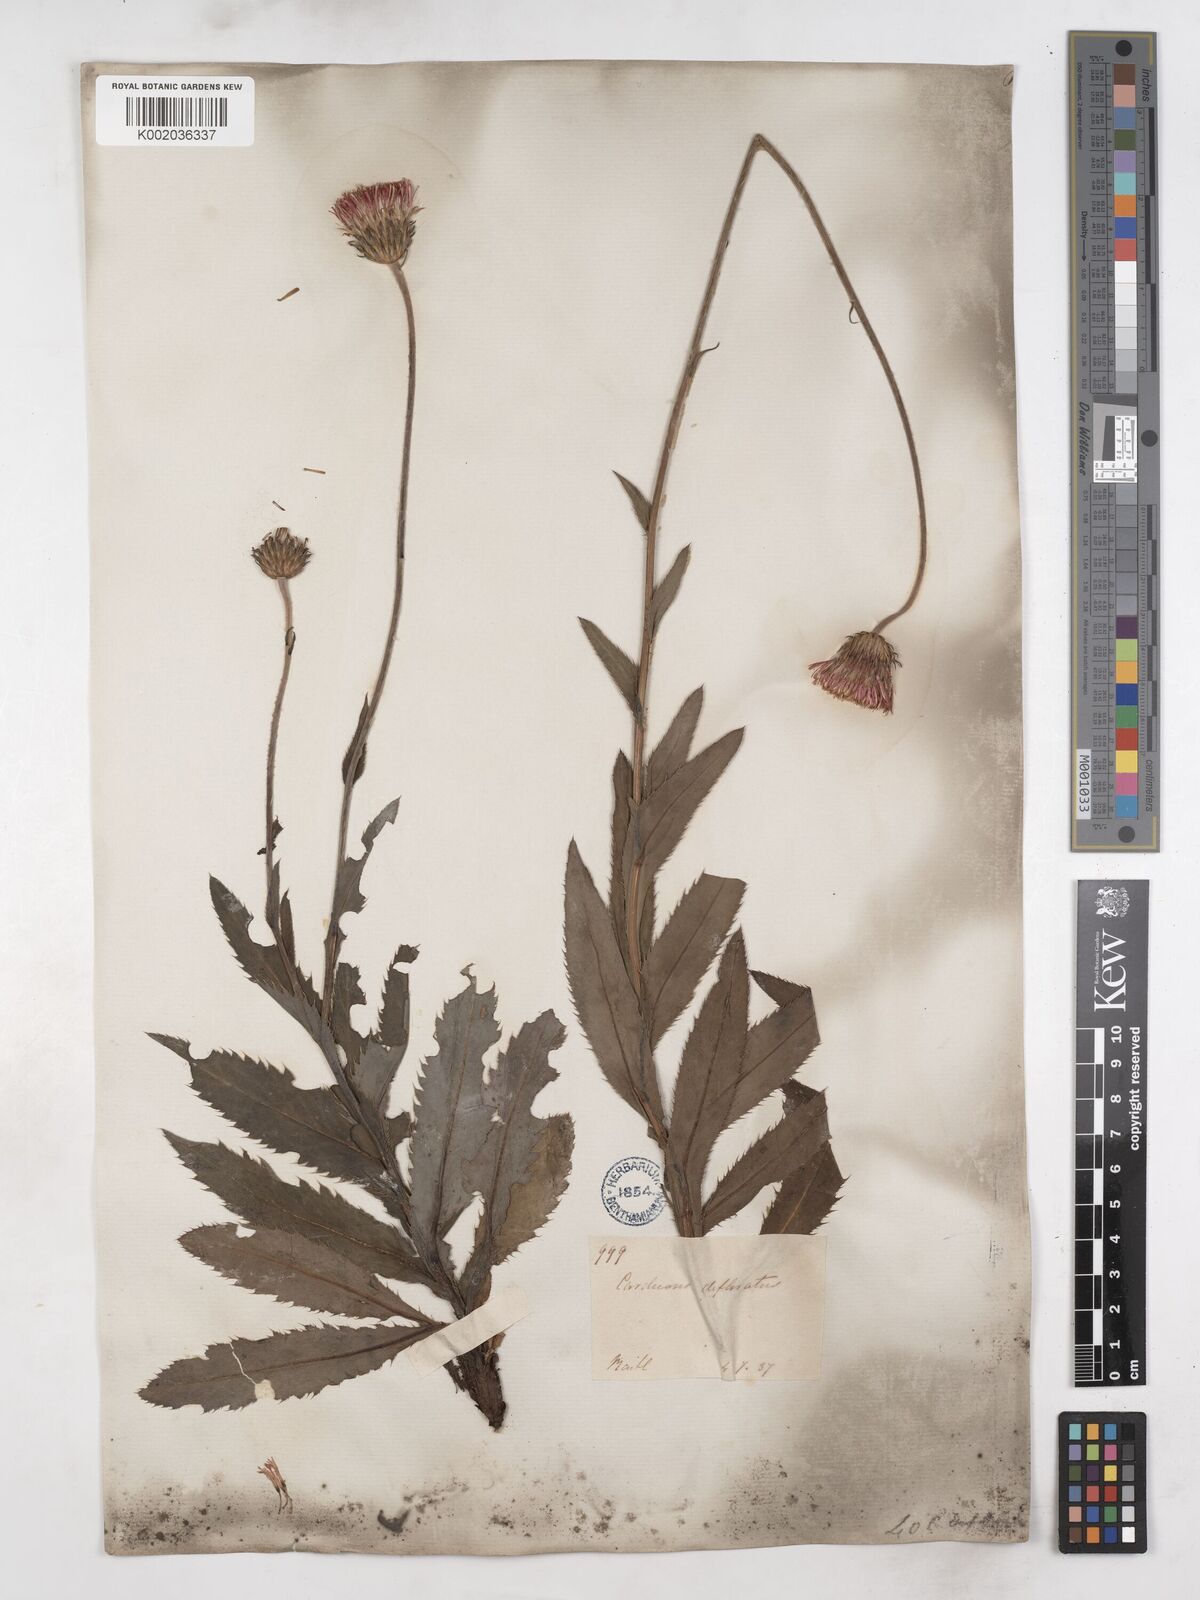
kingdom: Plantae
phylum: Tracheophyta
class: Magnoliopsida
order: Asterales
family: Asteraceae
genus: Carduus
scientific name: Carduus defloratus
